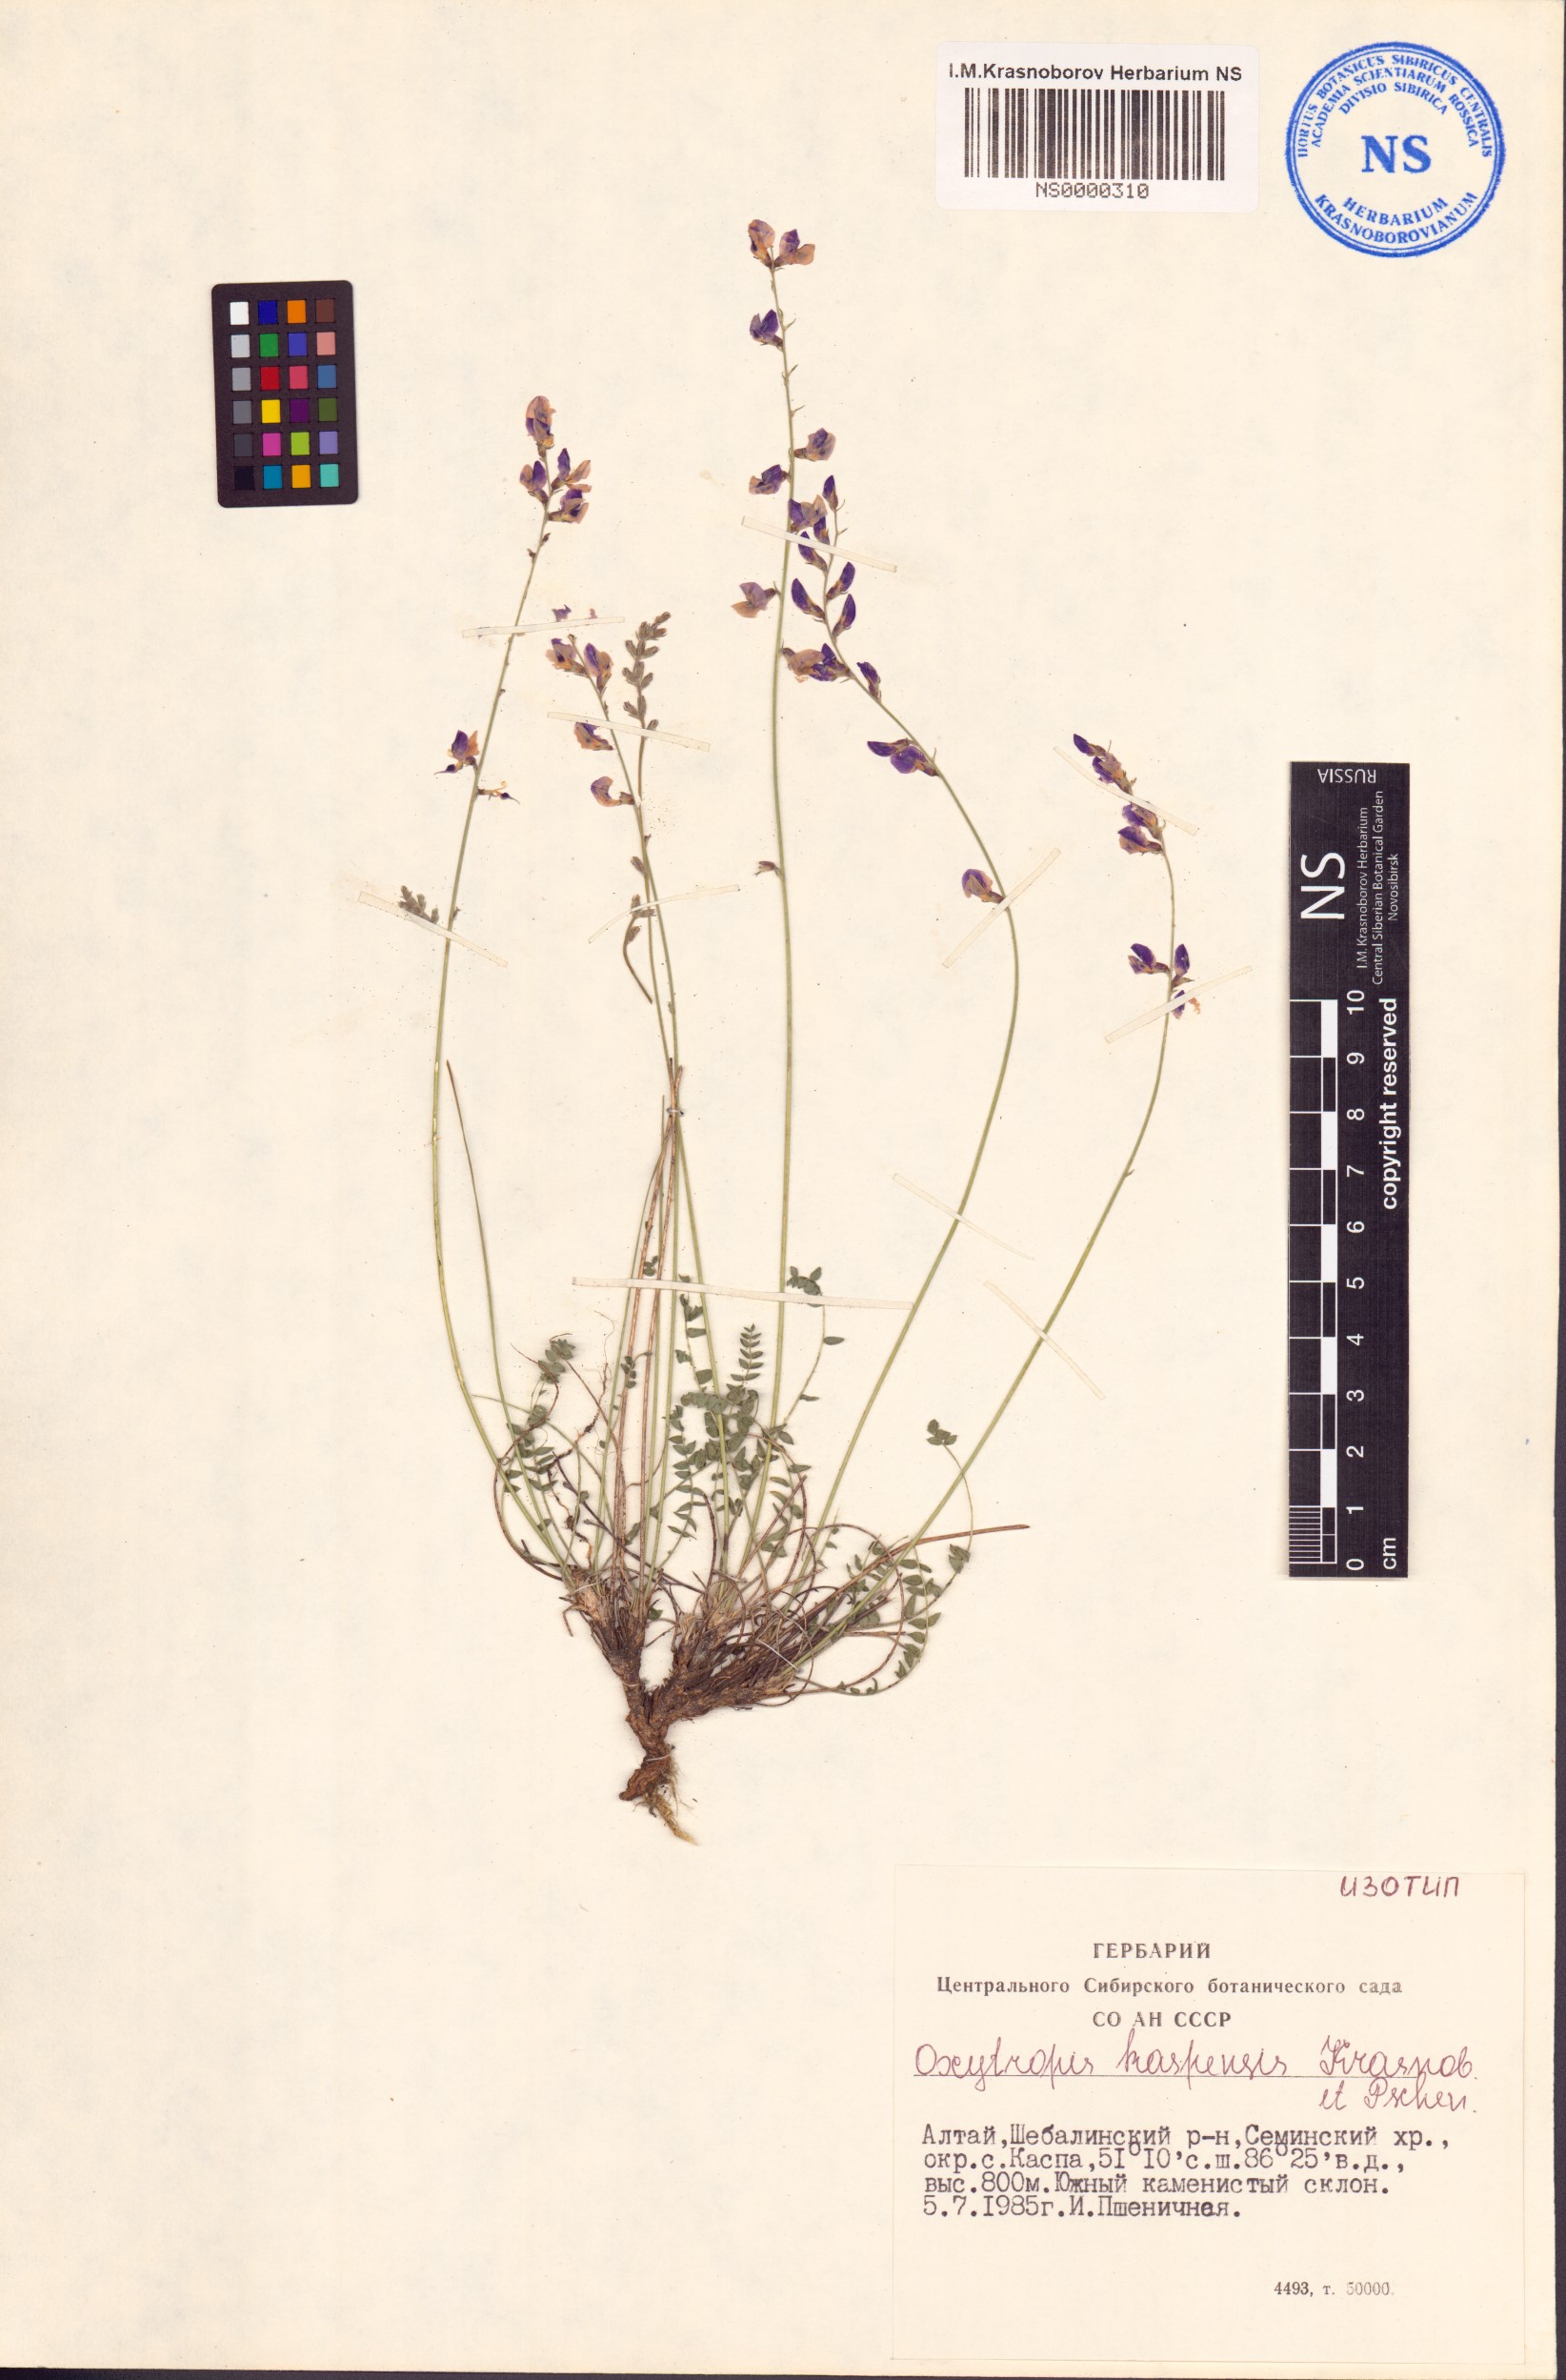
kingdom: Plantae
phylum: Tracheophyta
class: Magnoliopsida
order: Fabales
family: Fabaceae
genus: Oxytropis
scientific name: Oxytropis kaspensis
